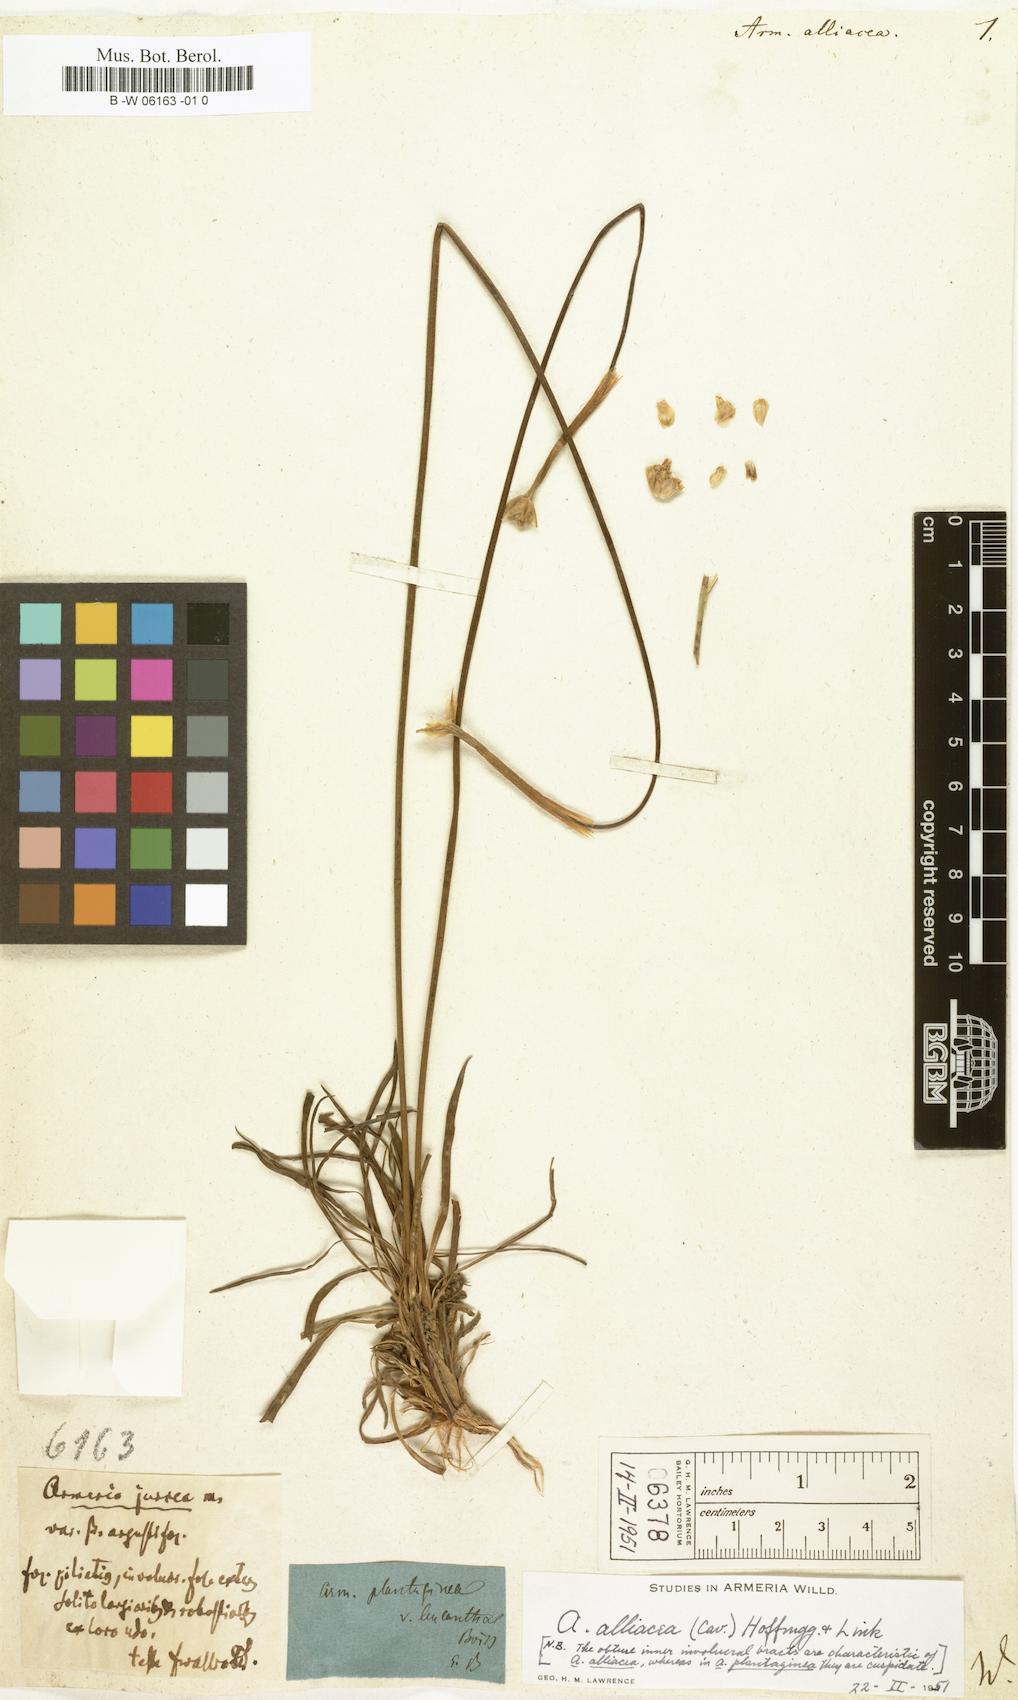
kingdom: Plantae
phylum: Tracheophyta
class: Magnoliopsida
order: Caryophyllales
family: Plumbaginaceae
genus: Armeria
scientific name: Armeria alliacea
